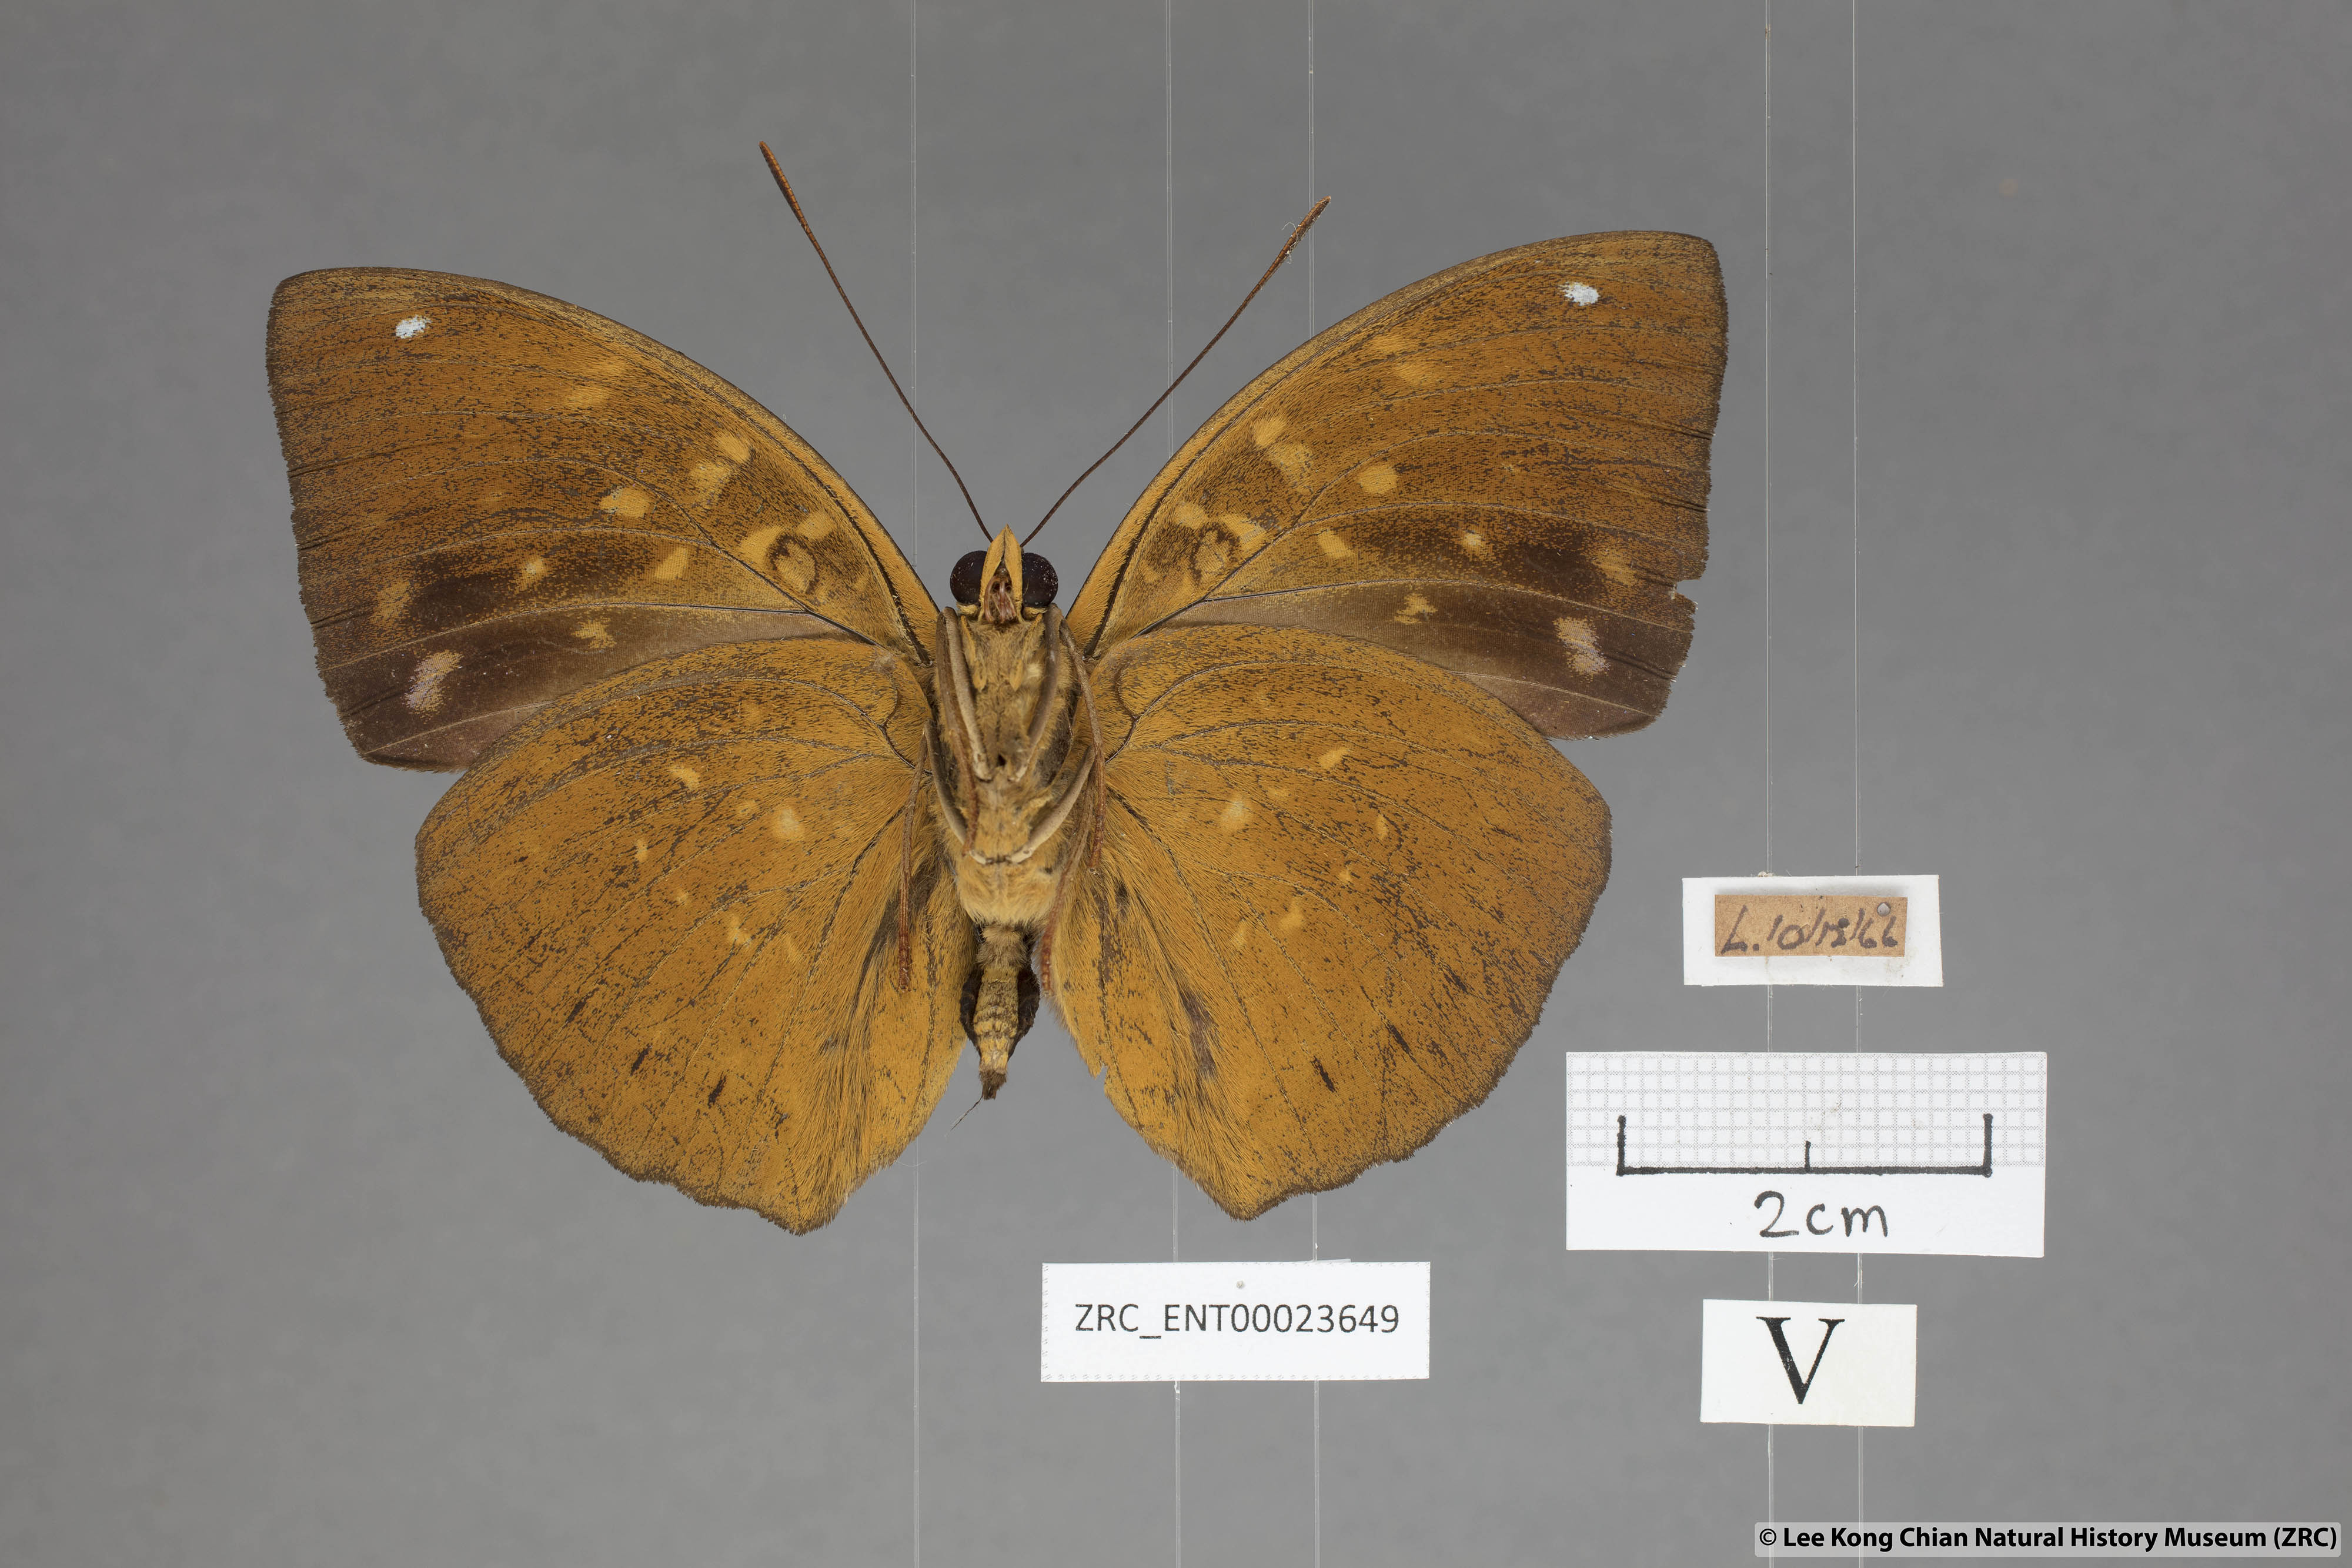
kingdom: Animalia
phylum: Arthropoda
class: Insecta
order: Lepidoptera
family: Nymphalidae
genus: Lexias
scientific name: Lexias pardalis
